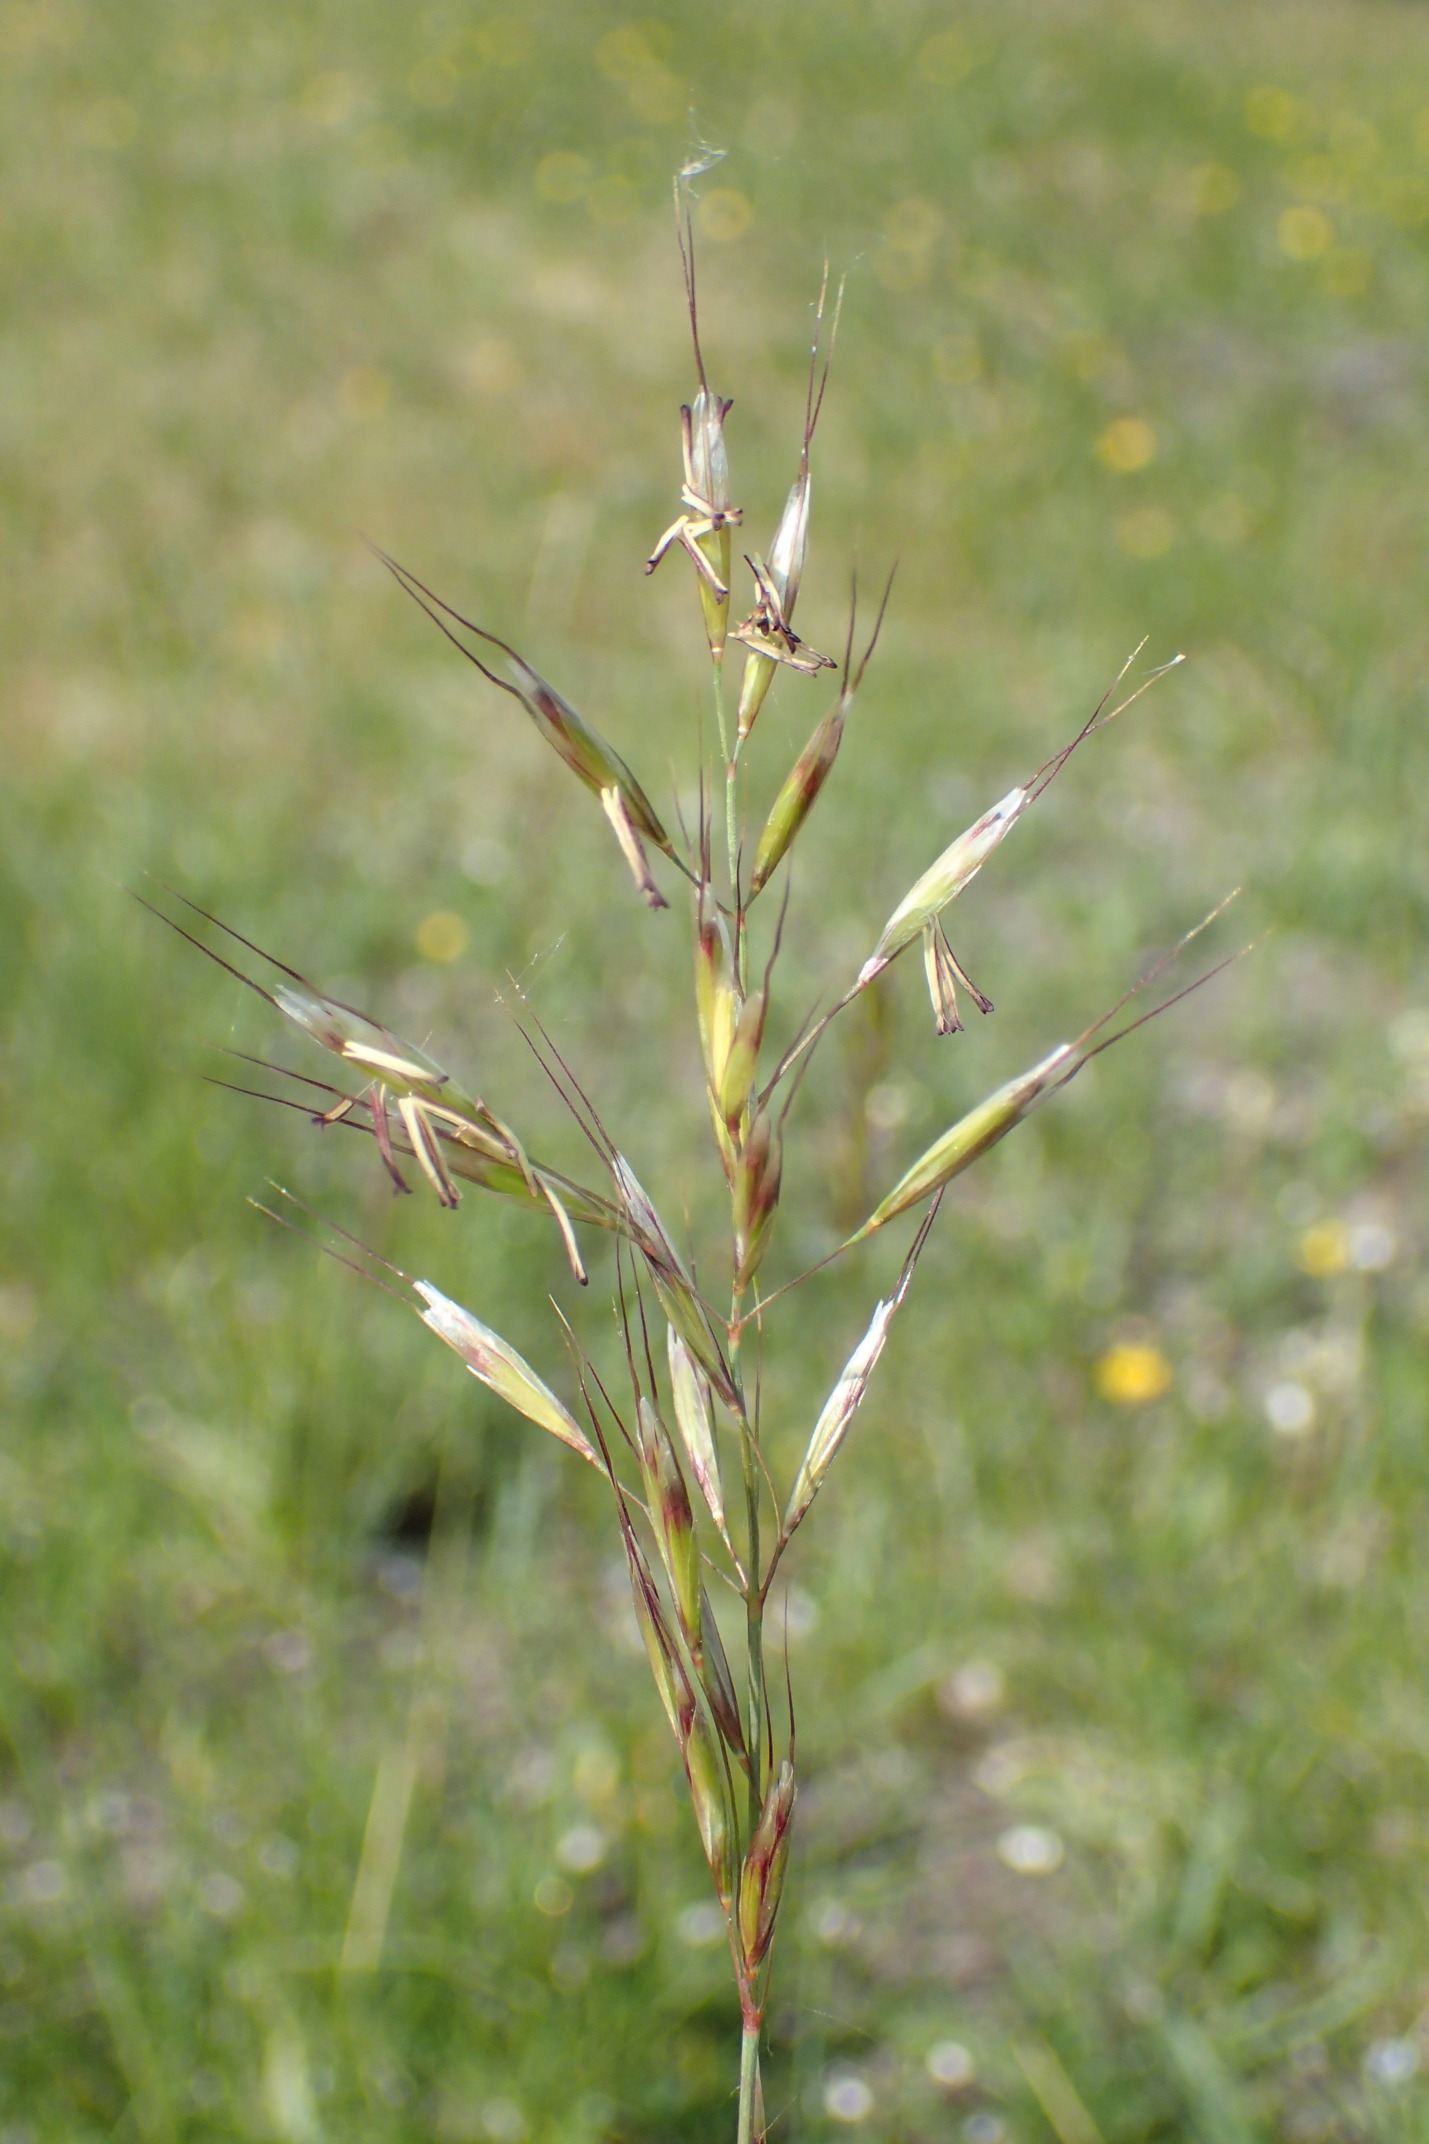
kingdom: Plantae
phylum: Tracheophyta
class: Liliopsida
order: Poales
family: Poaceae
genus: Avenula
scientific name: Avenula pubescens
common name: Dunet havre
